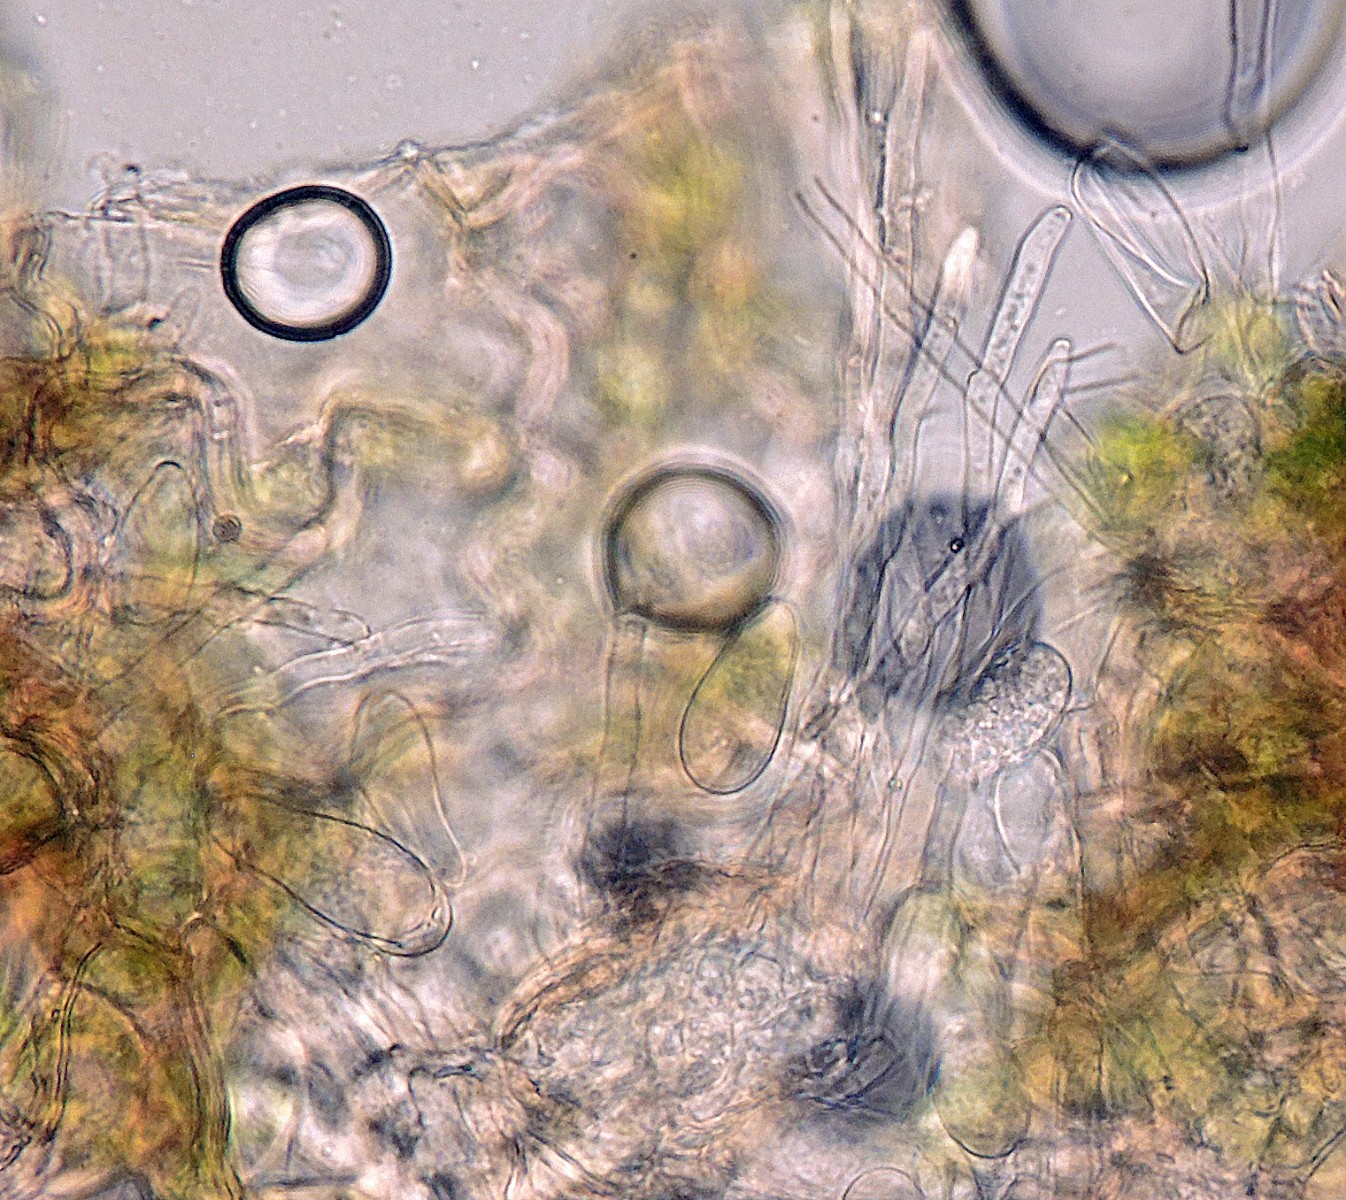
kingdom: Fungi
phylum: Ascomycota
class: Dothideomycetes
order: Mycosphaerellales
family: Mycosphaerellaceae
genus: Ramularia
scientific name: Ramularia rubella
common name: Red dock spot
